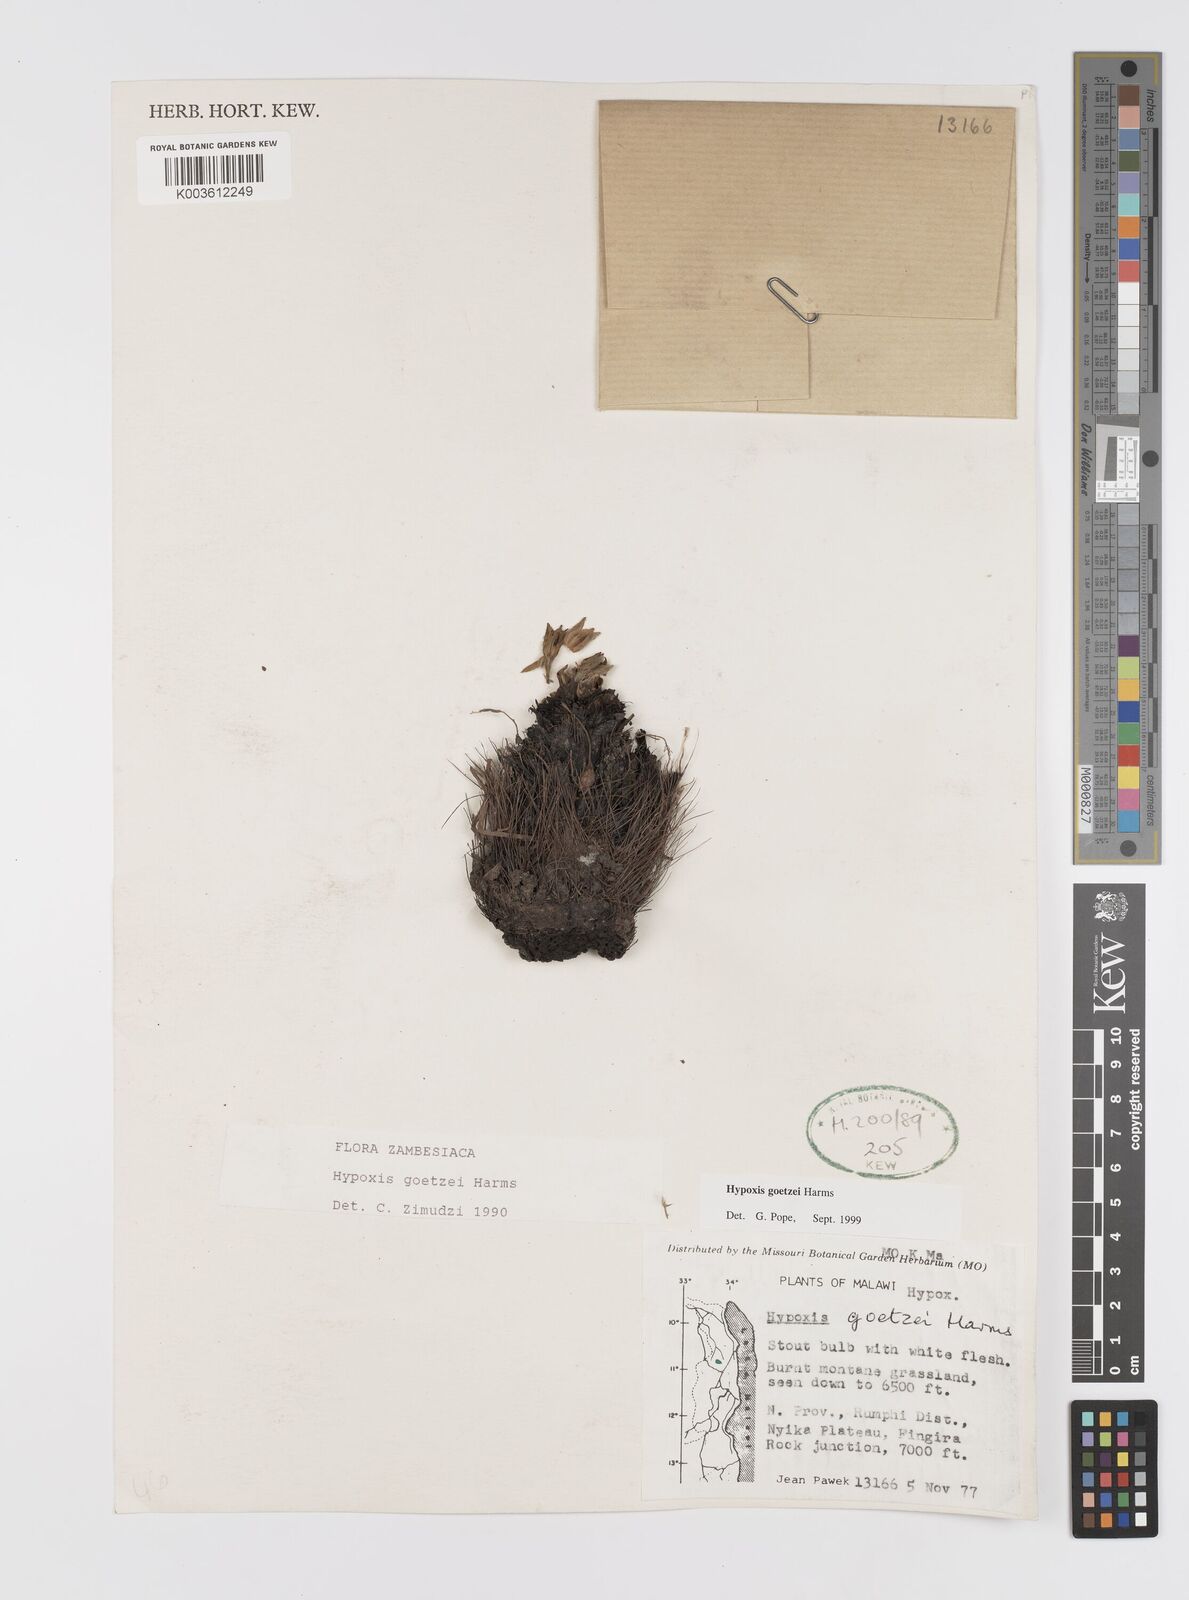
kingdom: Plantae
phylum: Tracheophyta
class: Liliopsida
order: Asparagales
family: Hypoxidaceae
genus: Hypoxis
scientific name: Hypoxis goetzei
